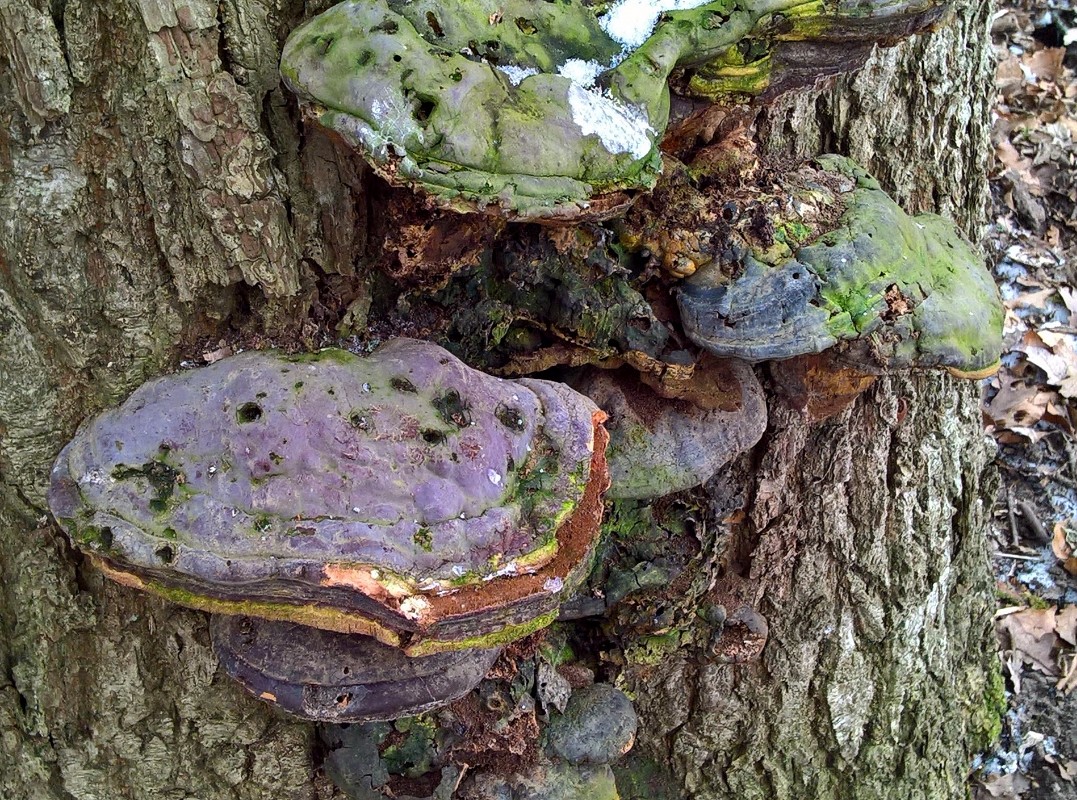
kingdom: Fungi
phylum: Basidiomycota
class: Agaricomycetes
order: Polyporales
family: Polyporaceae
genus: Ganoderma
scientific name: Ganoderma resinaceum
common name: gyldenbrun lakporesvamp
